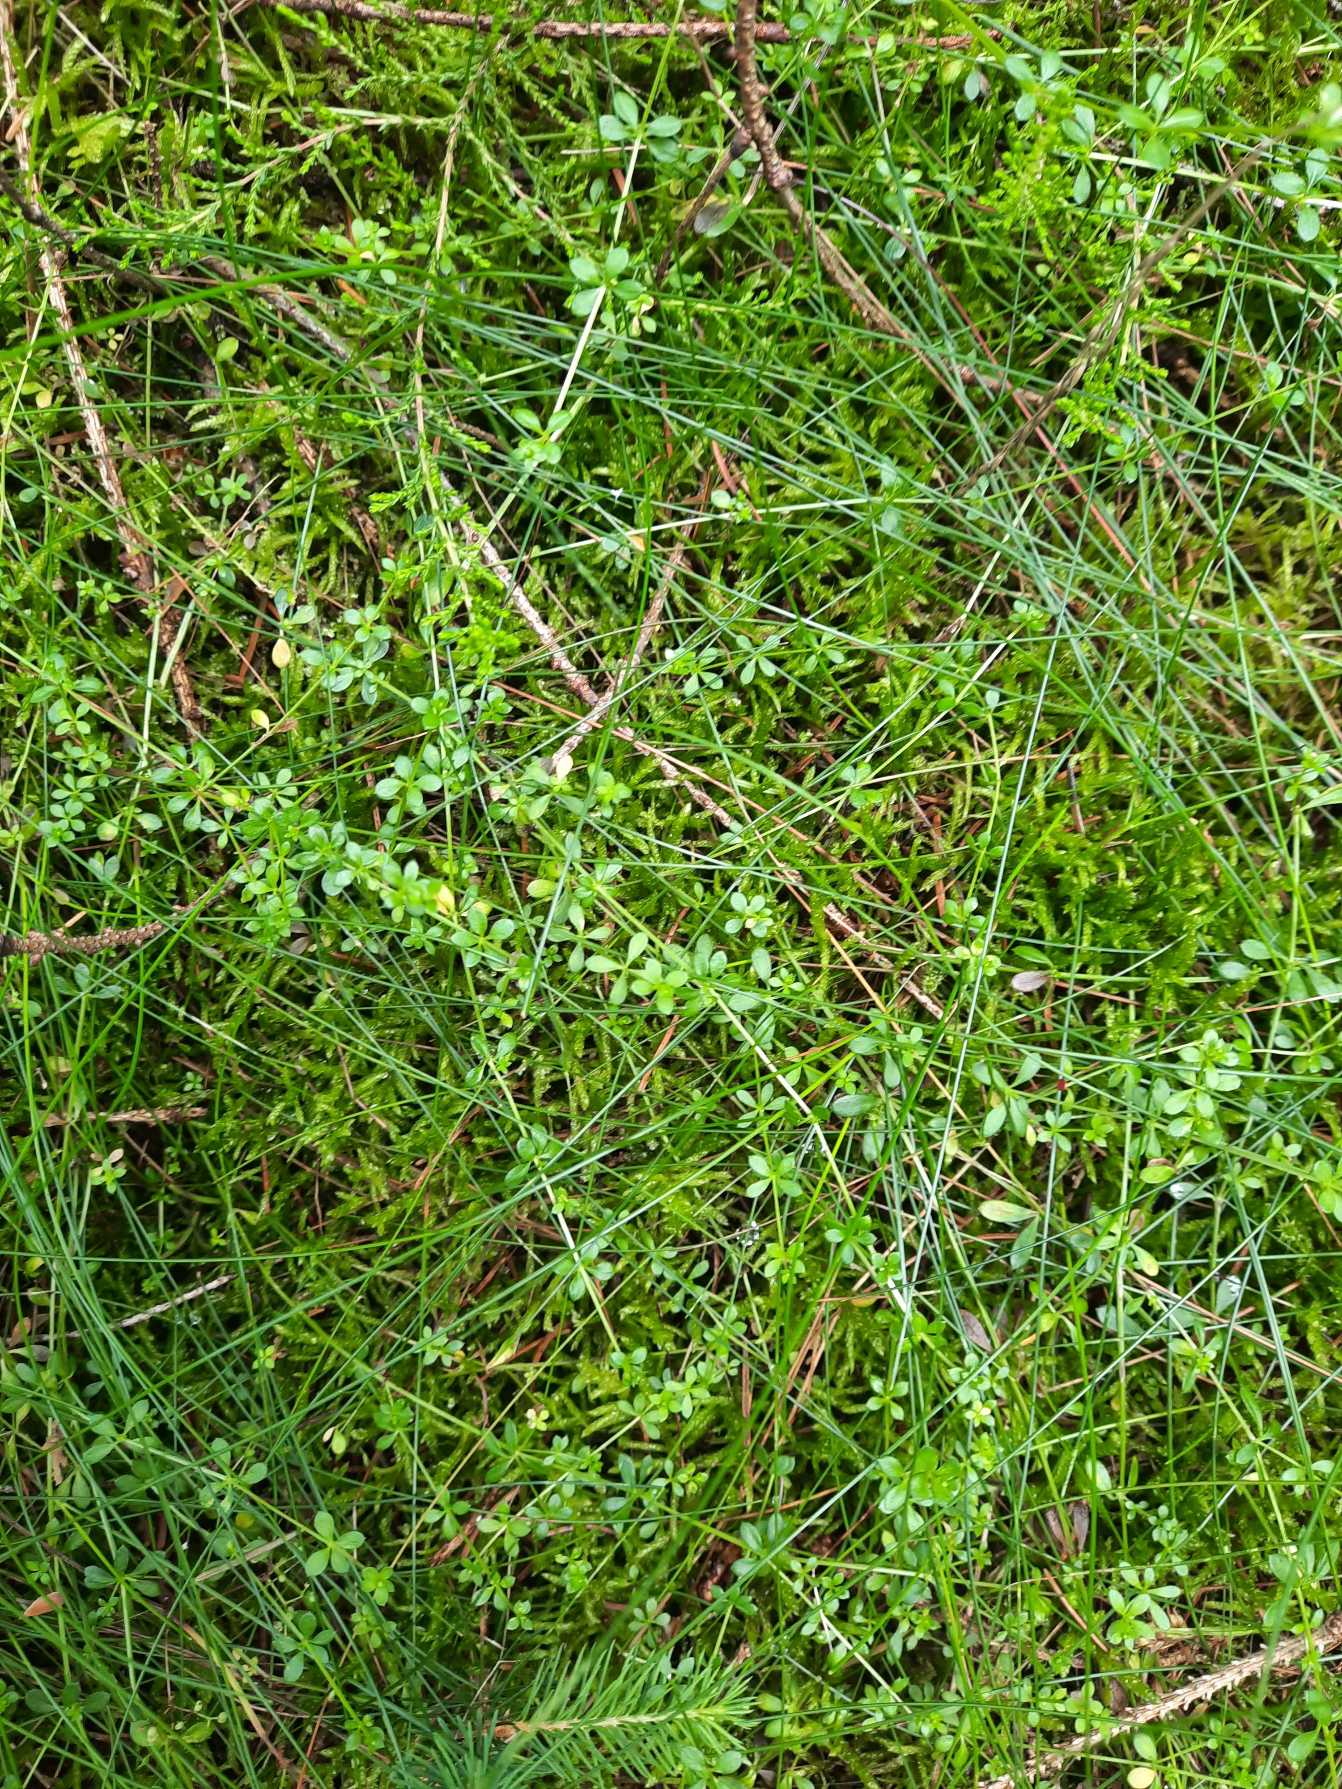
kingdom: Plantae
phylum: Tracheophyta
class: Magnoliopsida
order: Gentianales
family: Rubiaceae
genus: Galium
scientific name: Galium saxatile
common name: Lyng-snerre
